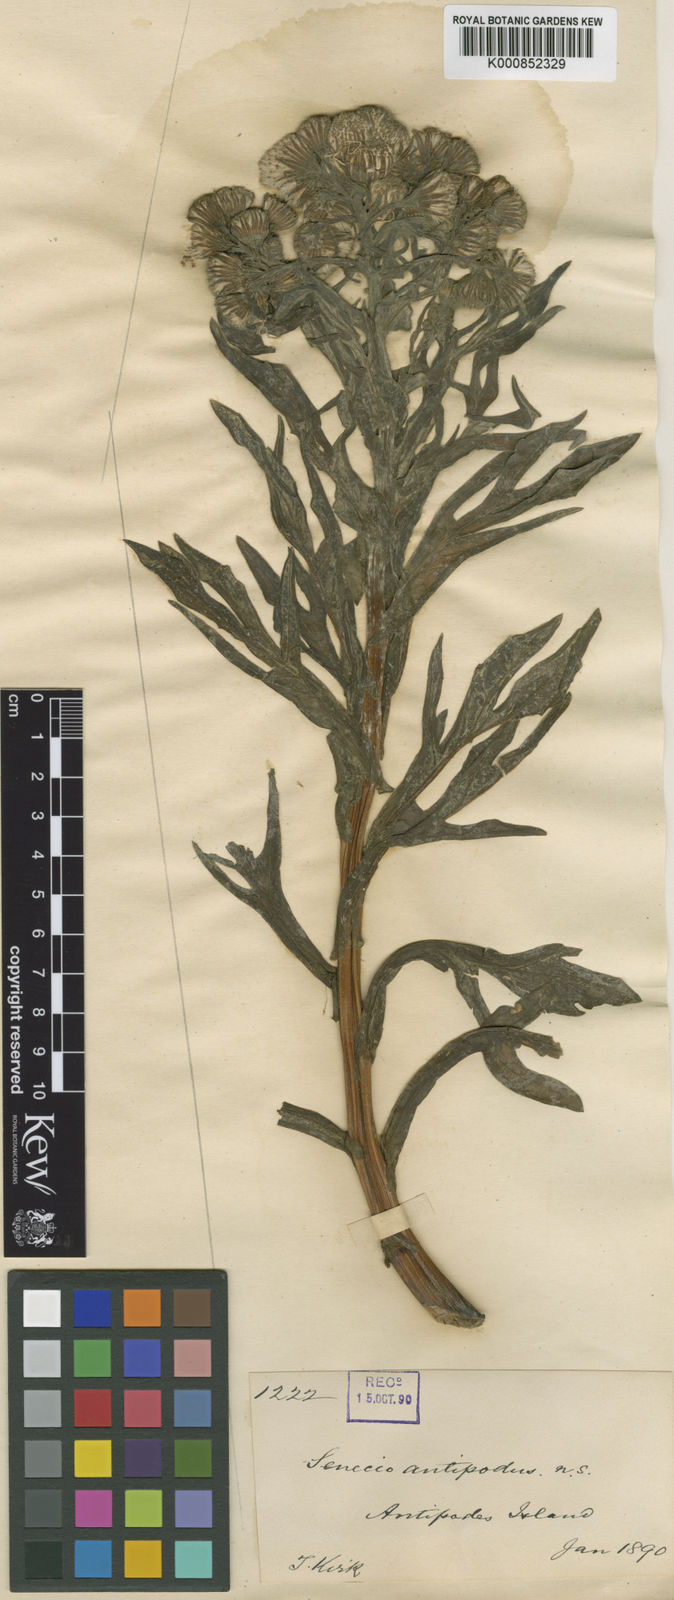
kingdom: Plantae
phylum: Tracheophyta
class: Magnoliopsida
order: Asterales
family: Asteraceae
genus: Senecio
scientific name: Senecio radiolatus
